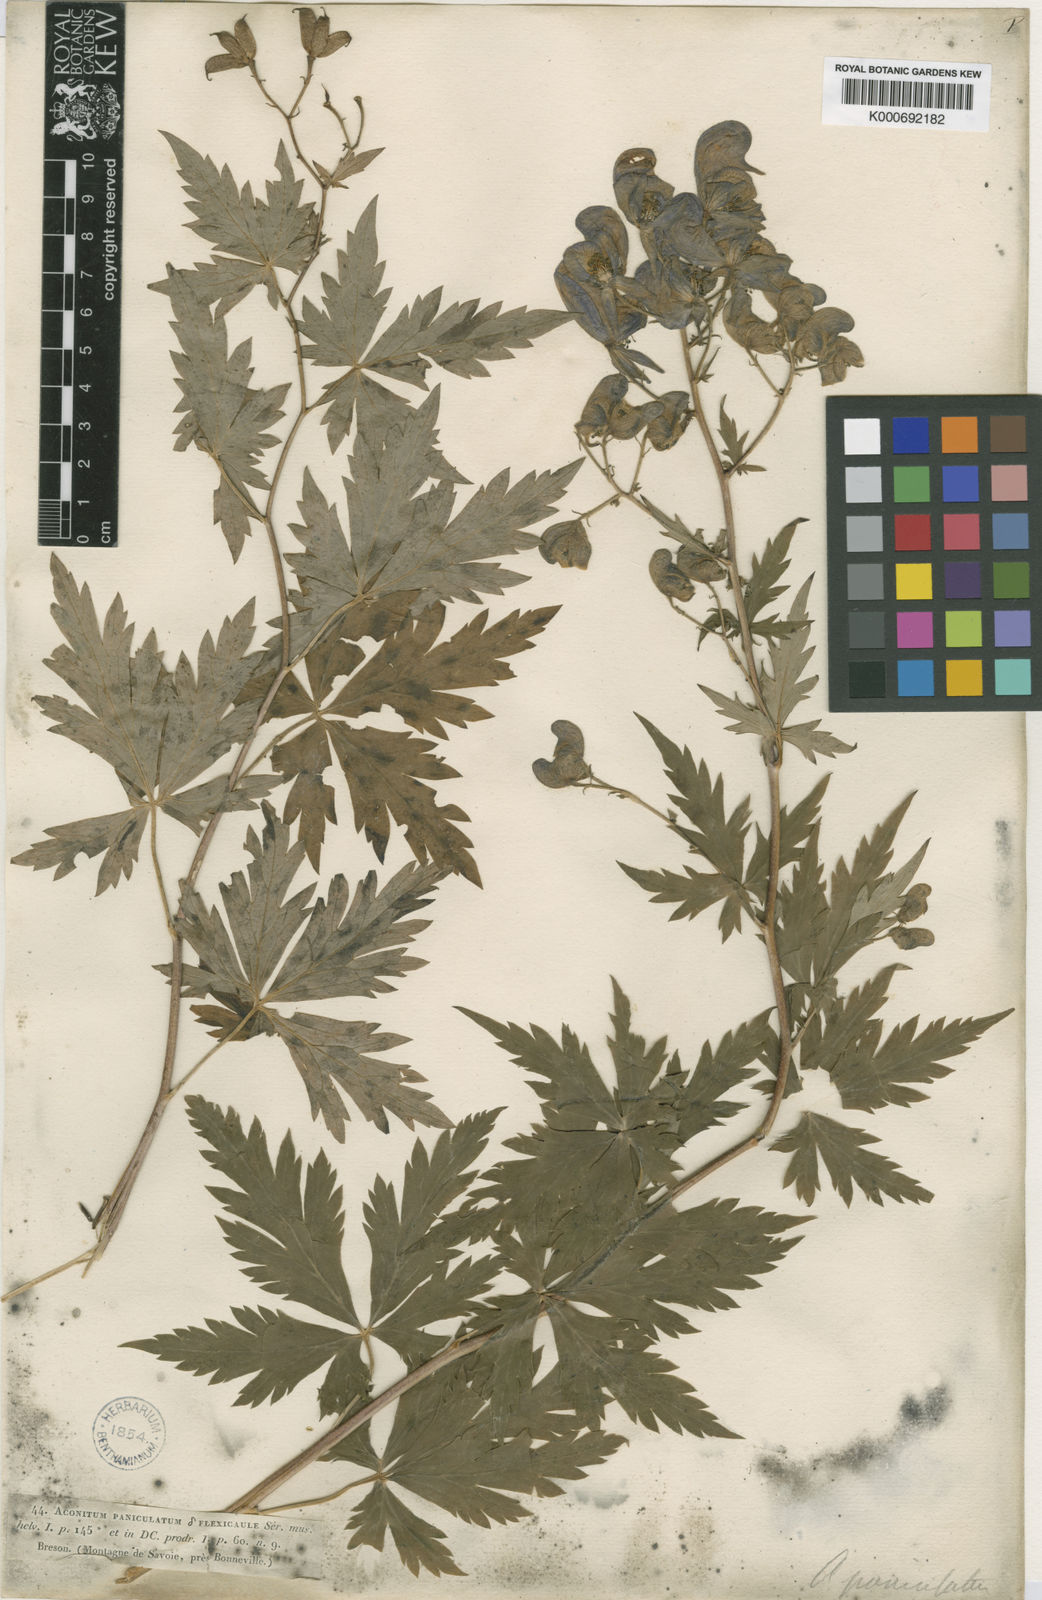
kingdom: Plantae
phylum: Tracheophyta
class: Magnoliopsida
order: Ranunculales
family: Ranunculaceae
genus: Aconitum
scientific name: Aconitum
